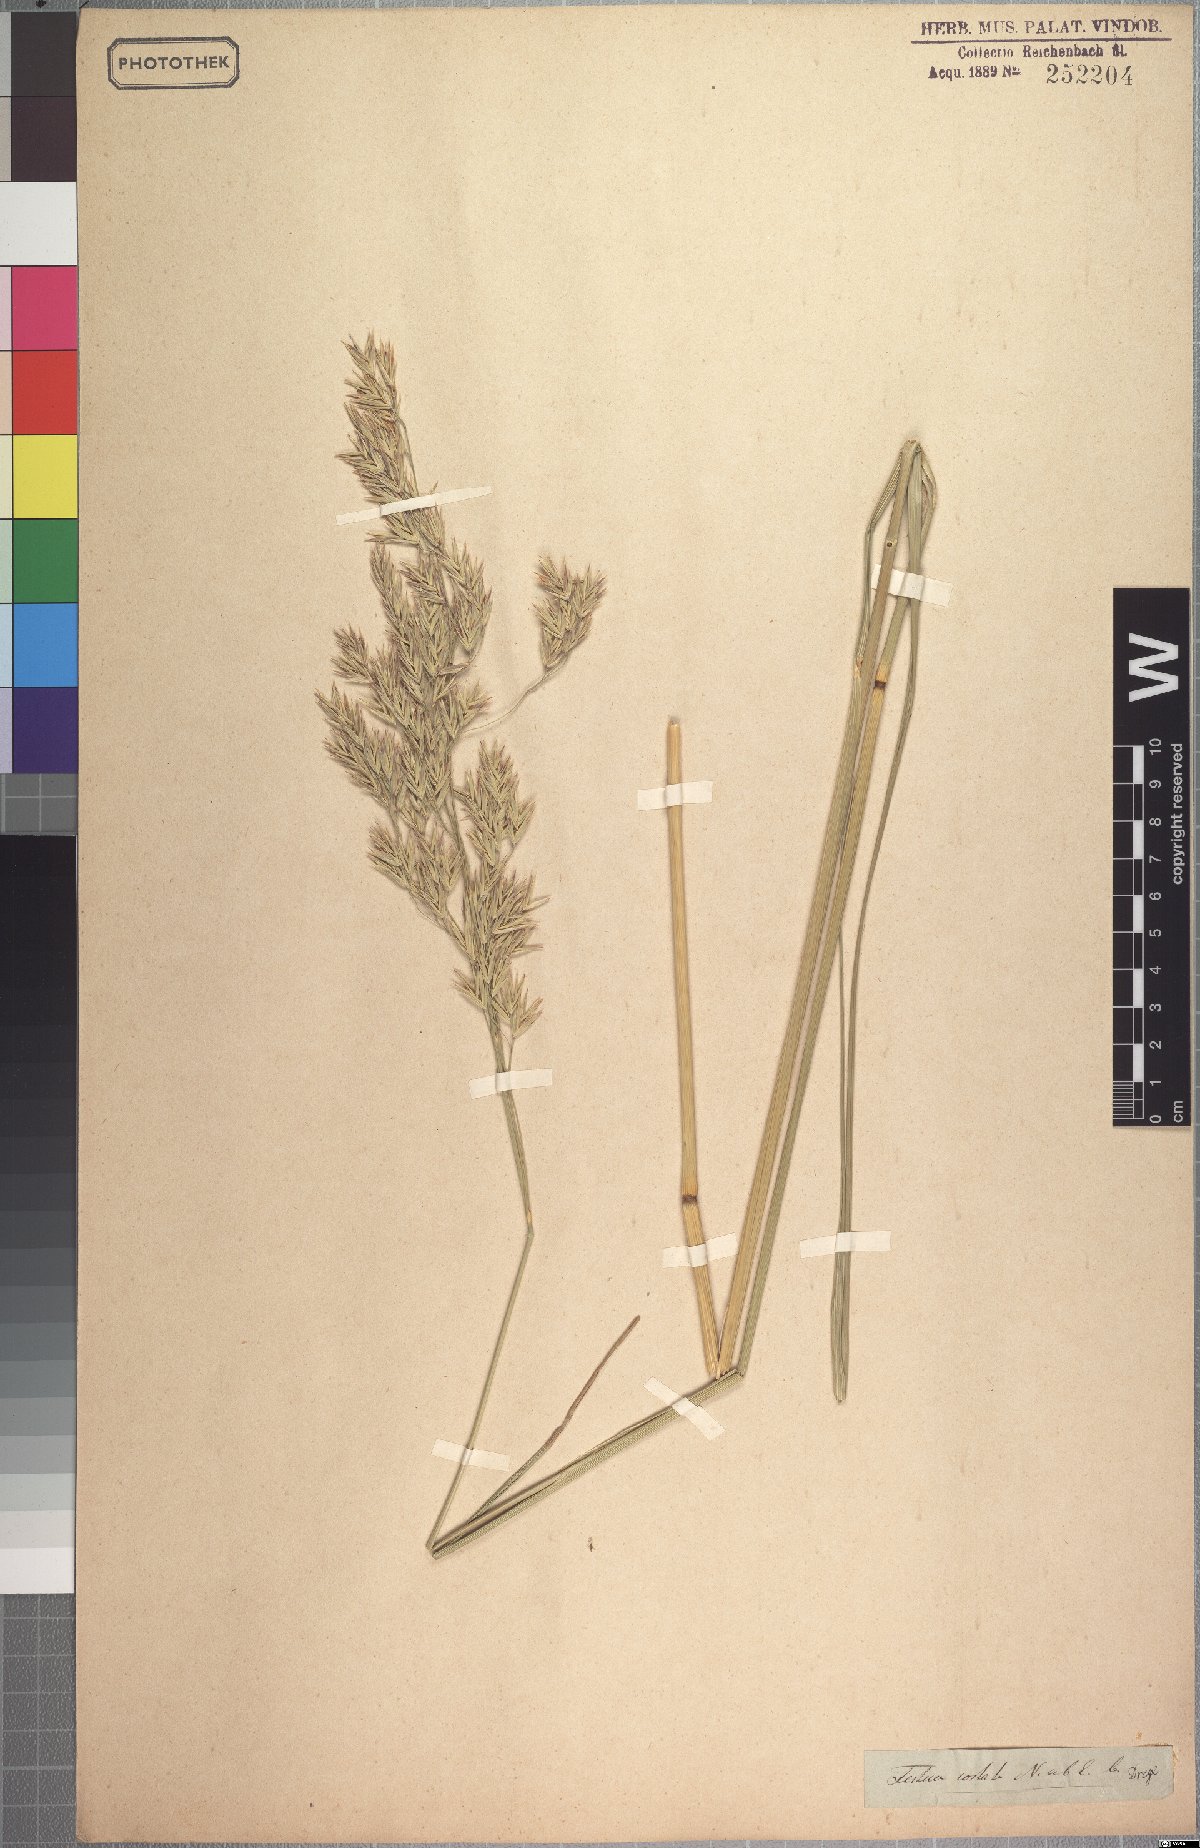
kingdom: Plantae
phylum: Tracheophyta
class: Liliopsida
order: Poales
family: Poaceae
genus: Festuca
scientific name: Festuca costata
